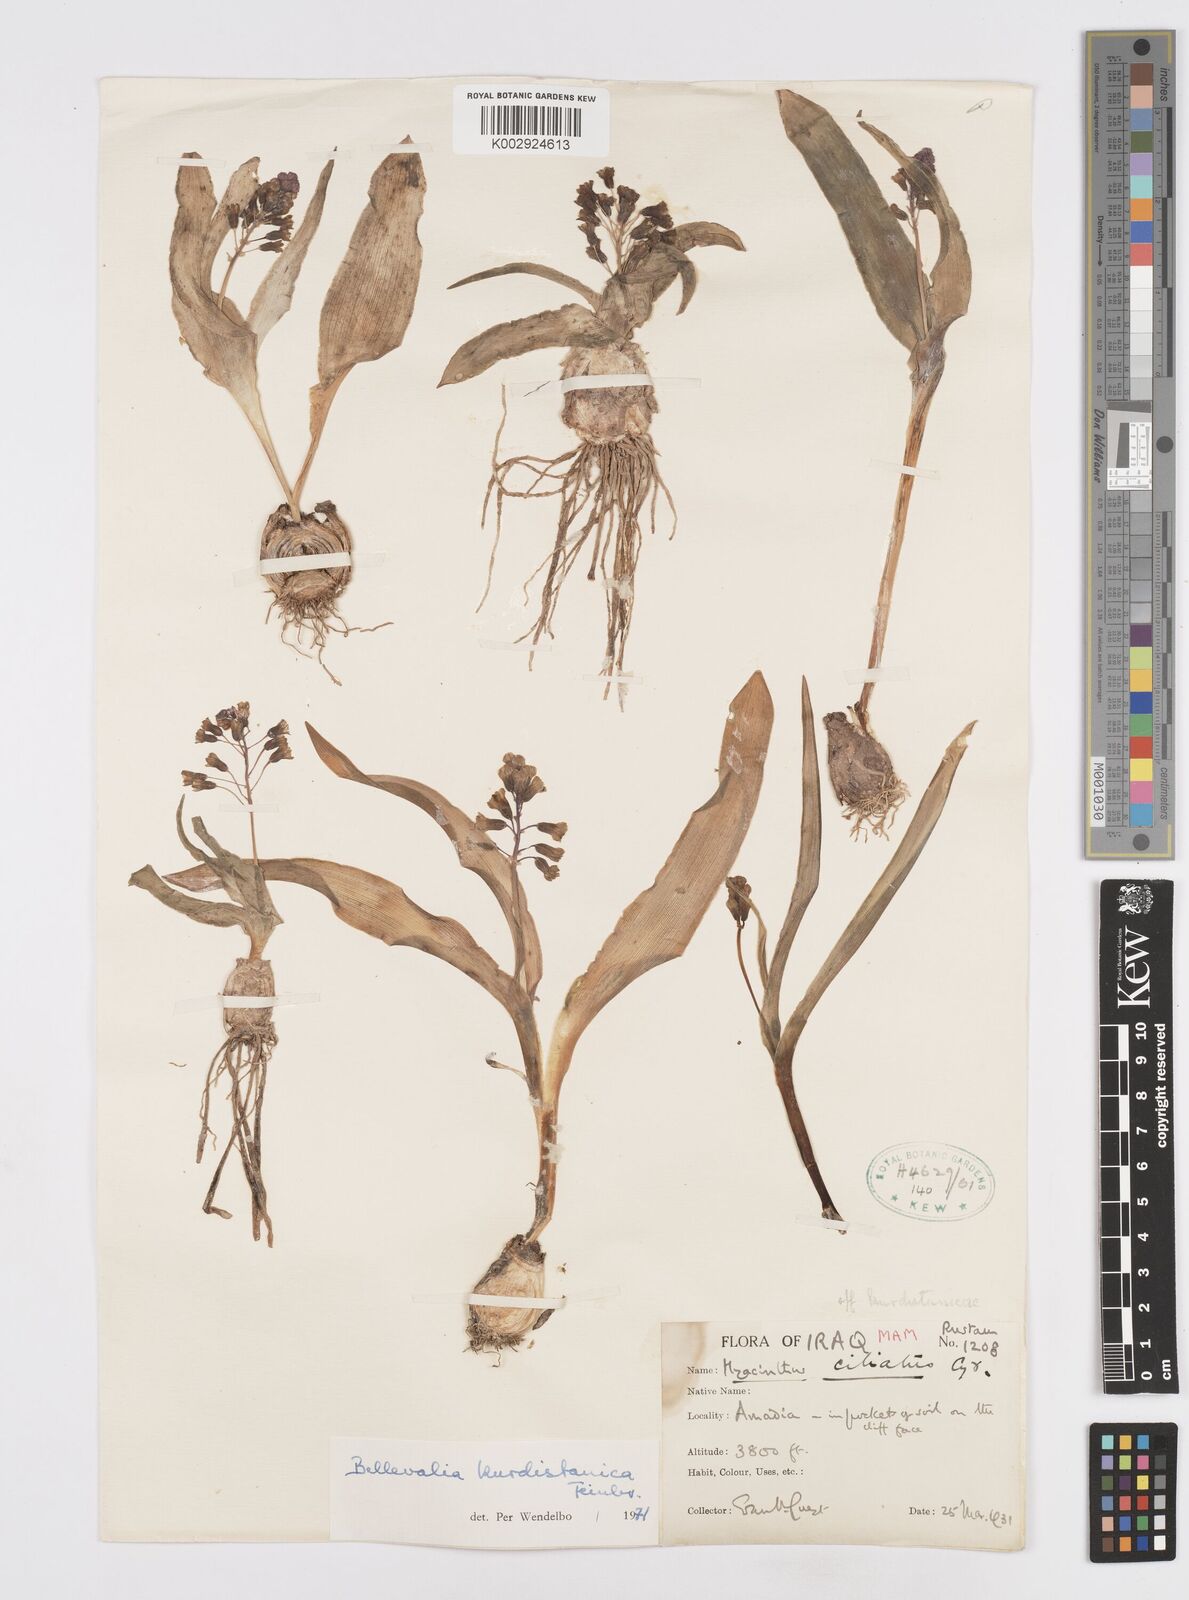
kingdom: Plantae
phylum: Tracheophyta
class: Liliopsida
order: Asparagales
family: Asparagaceae
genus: Bellevalia
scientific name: Bellevalia kurdistanica
